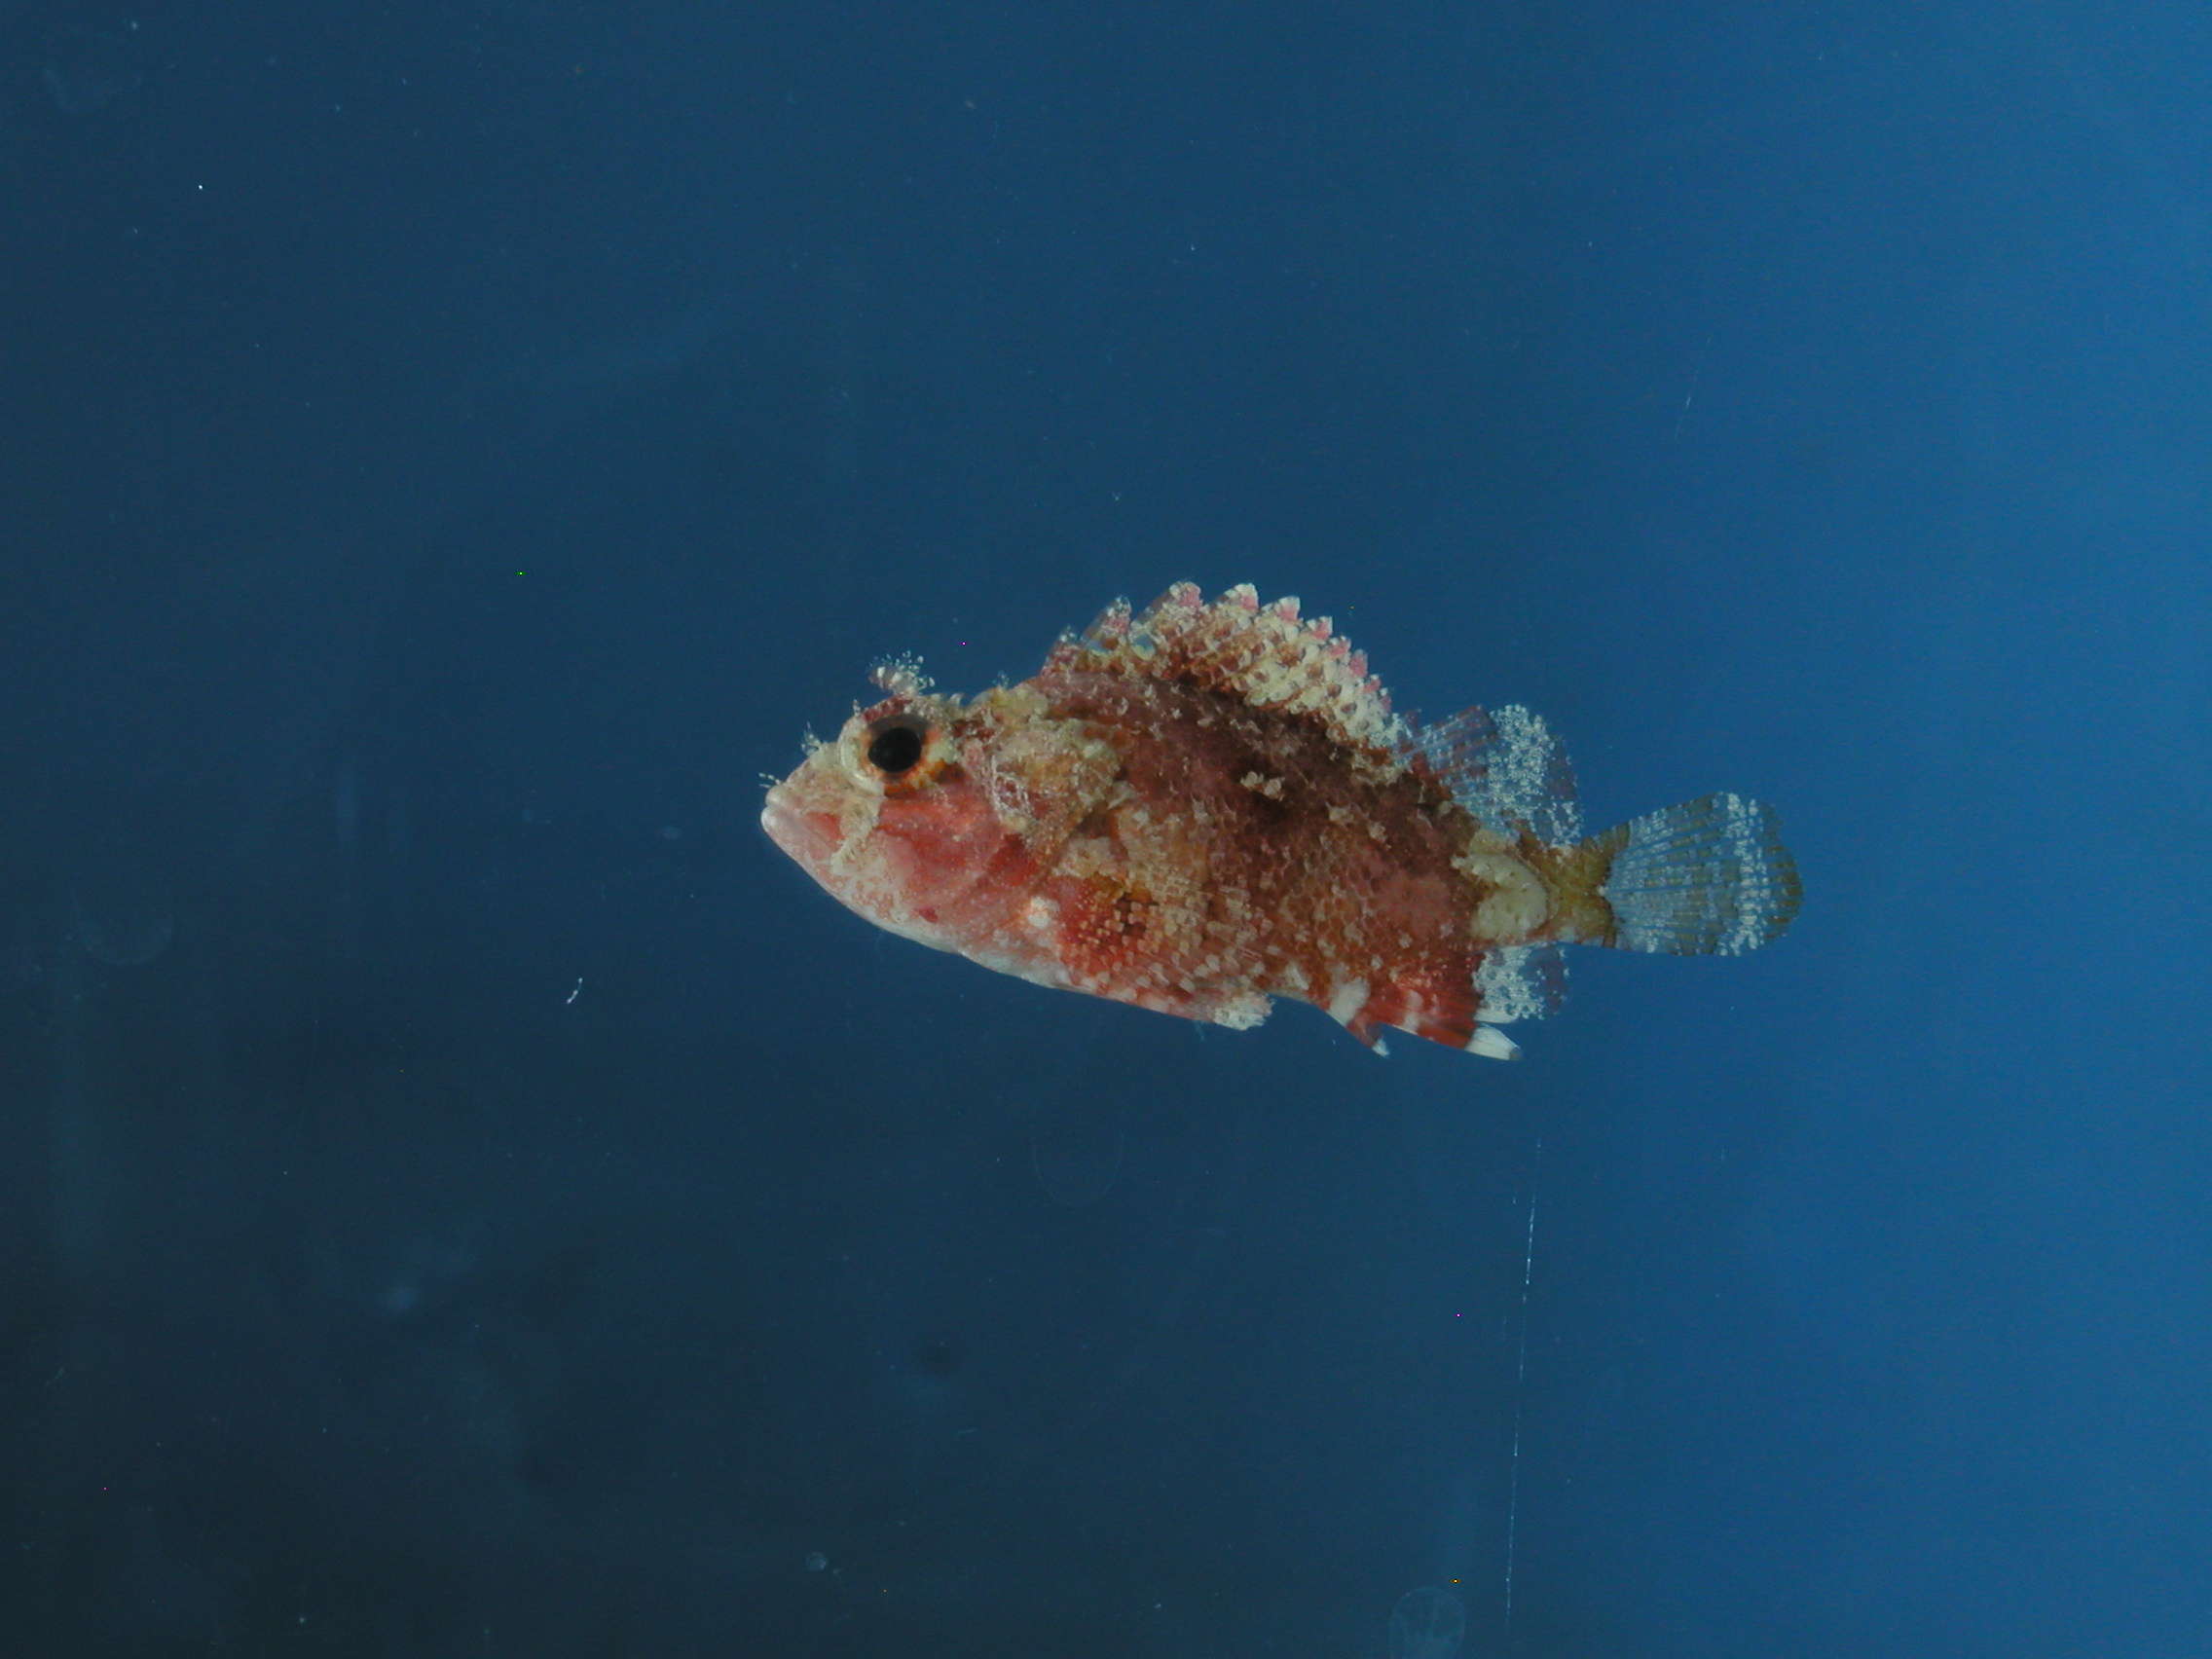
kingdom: Animalia
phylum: Chordata
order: Scorpaeniformes
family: Scorpaenidae
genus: Parascorpaena
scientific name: Parascorpaena mcadamsi
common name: Ocellated scorpionfish
